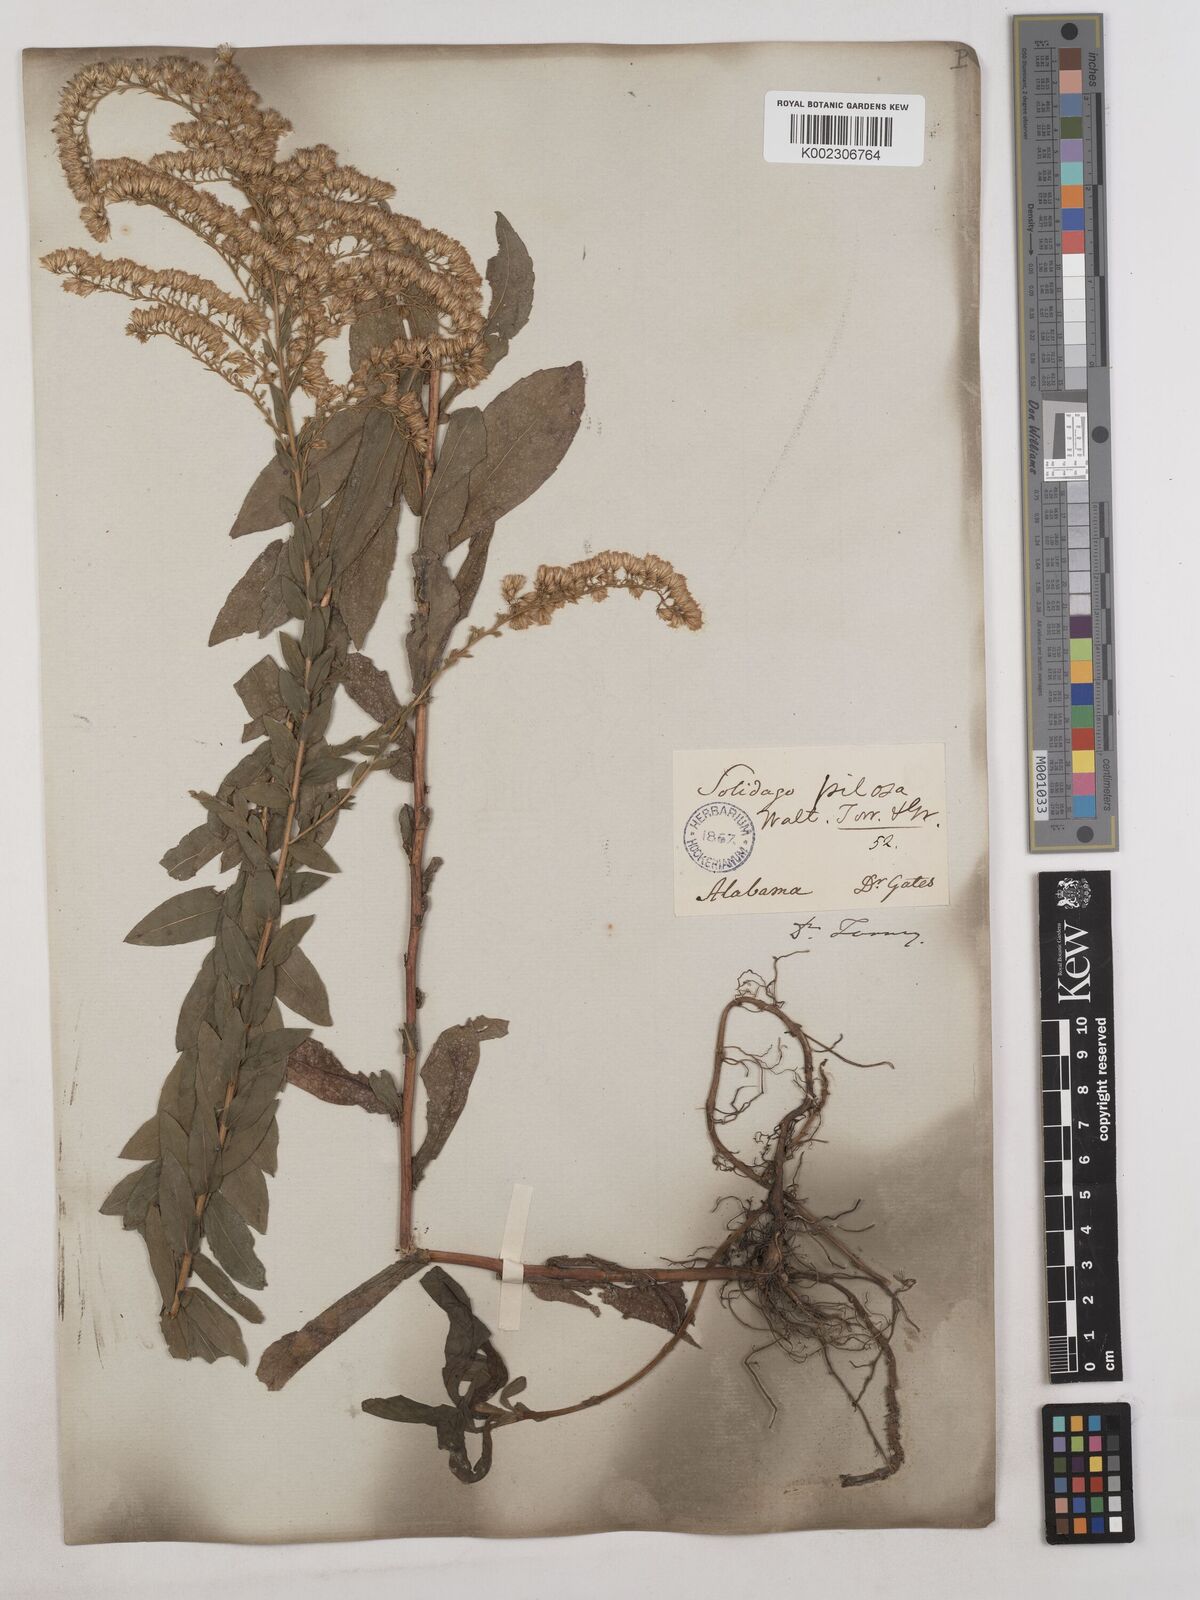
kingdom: Plantae
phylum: Tracheophyta
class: Magnoliopsida
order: Asterales
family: Asteraceae
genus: Solidago
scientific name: Solidago fistulosa
